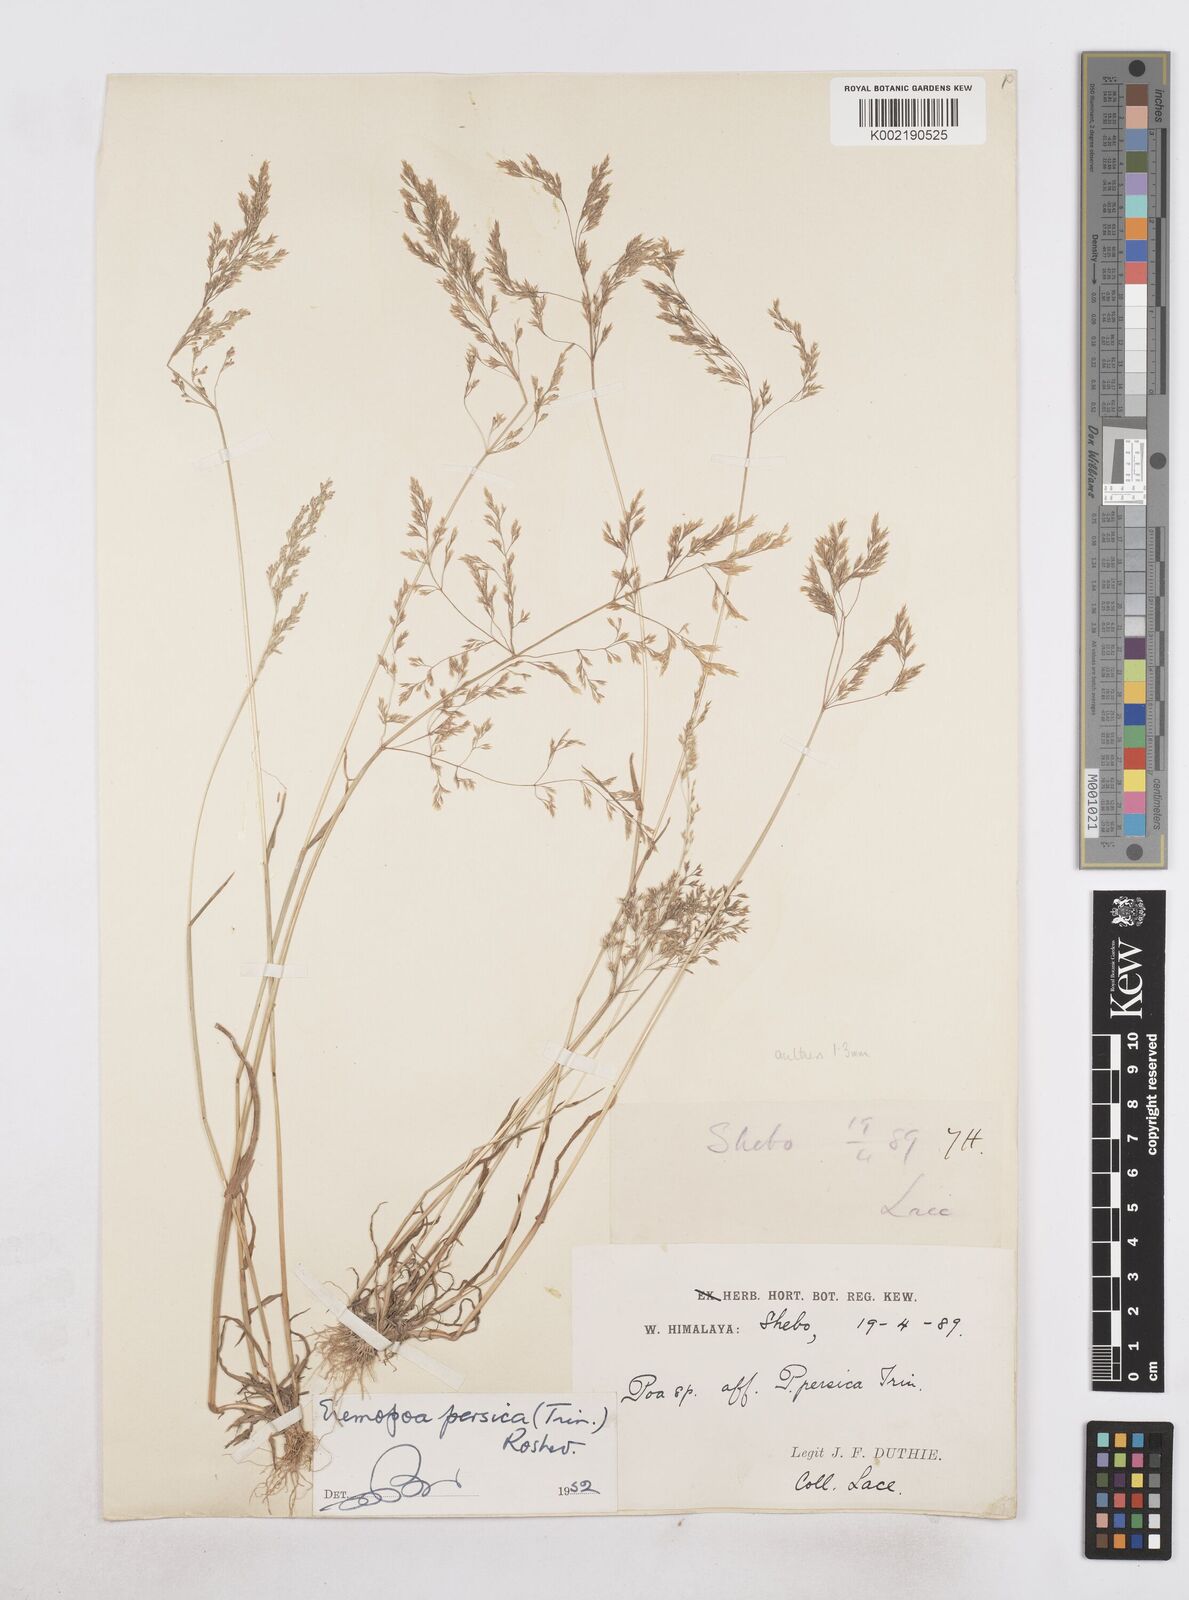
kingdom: Plantae
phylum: Tracheophyta
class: Liliopsida
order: Poales
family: Poaceae
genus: Poa
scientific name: Poa persica
